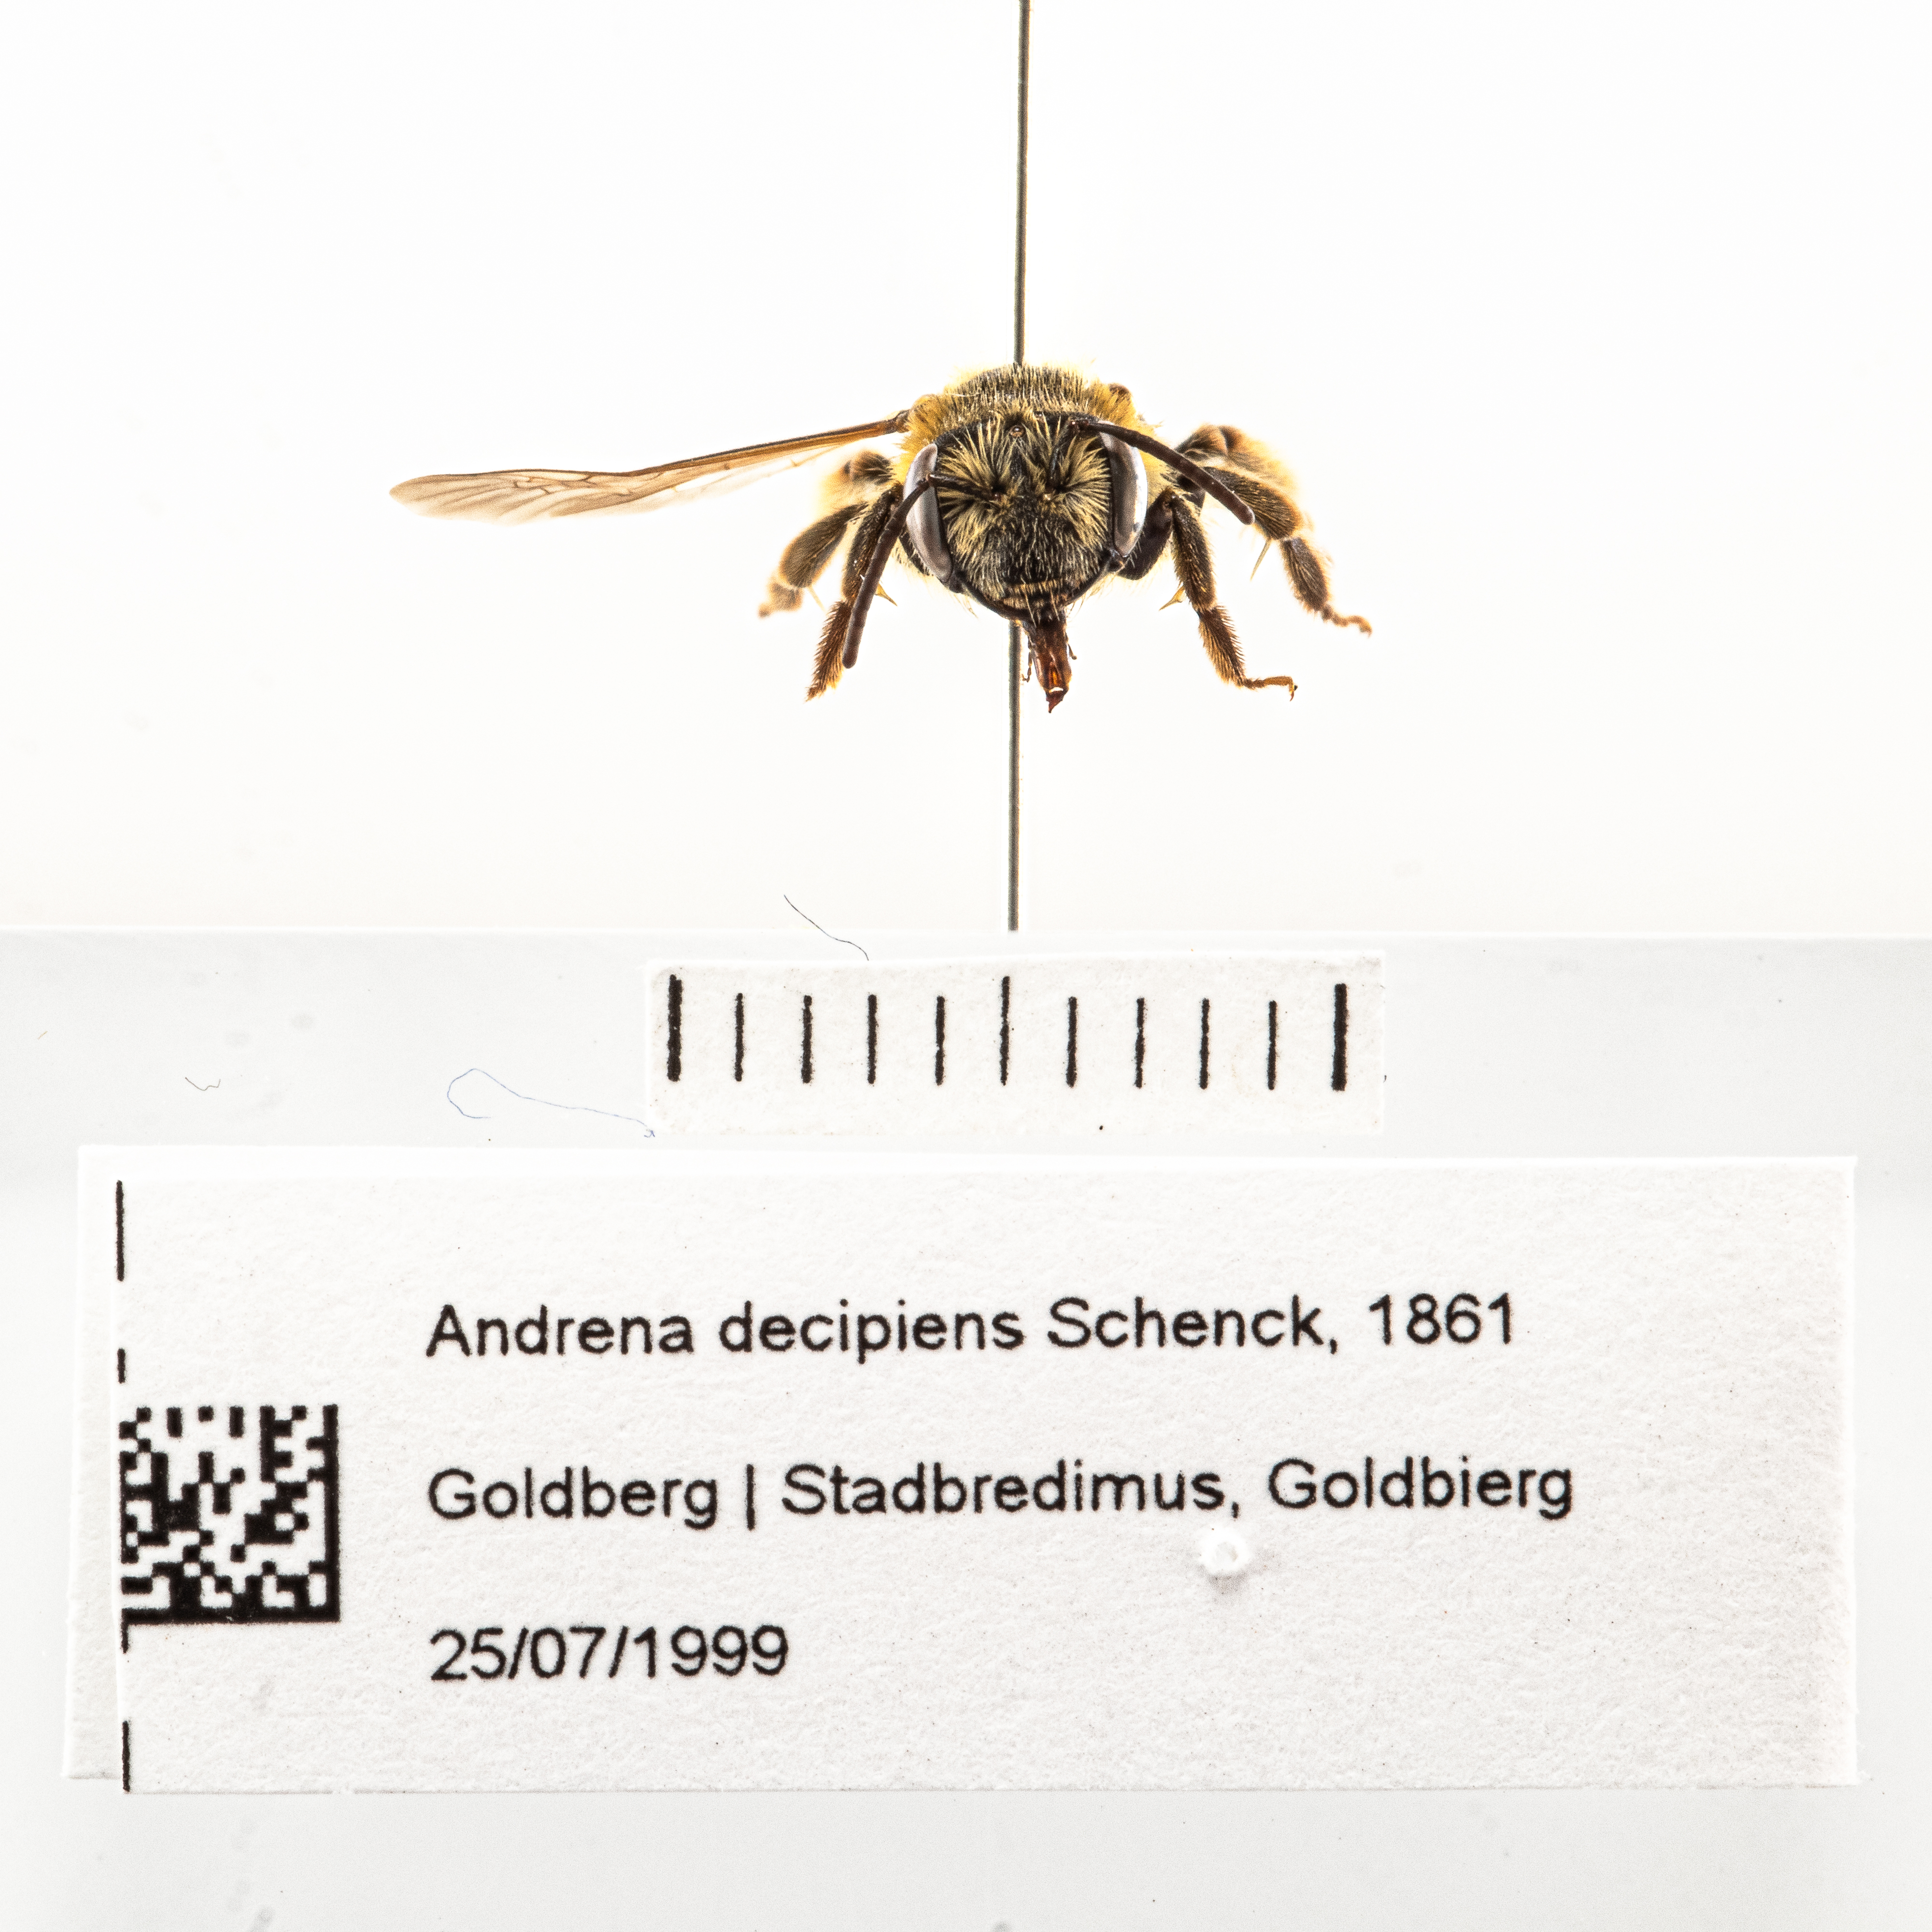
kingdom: Animalia
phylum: Arthropoda
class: Insecta
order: Hymenoptera
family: Andrenidae
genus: Andrena
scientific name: Andrena decipiens
